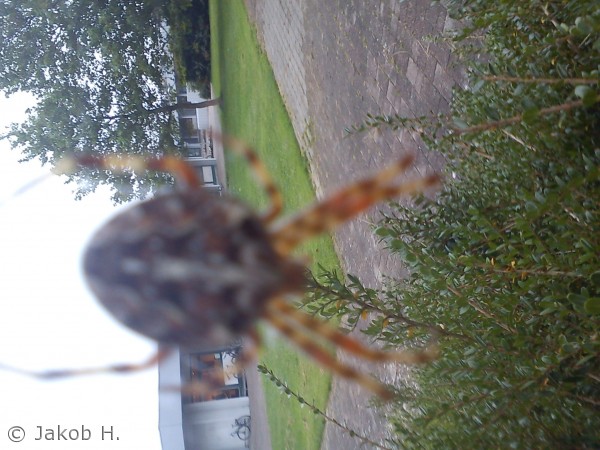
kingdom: Animalia
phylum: Arthropoda
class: Arachnida
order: Araneae
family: Araneidae
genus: Araneus
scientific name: Araneus diadematus
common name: Korsedderkop
